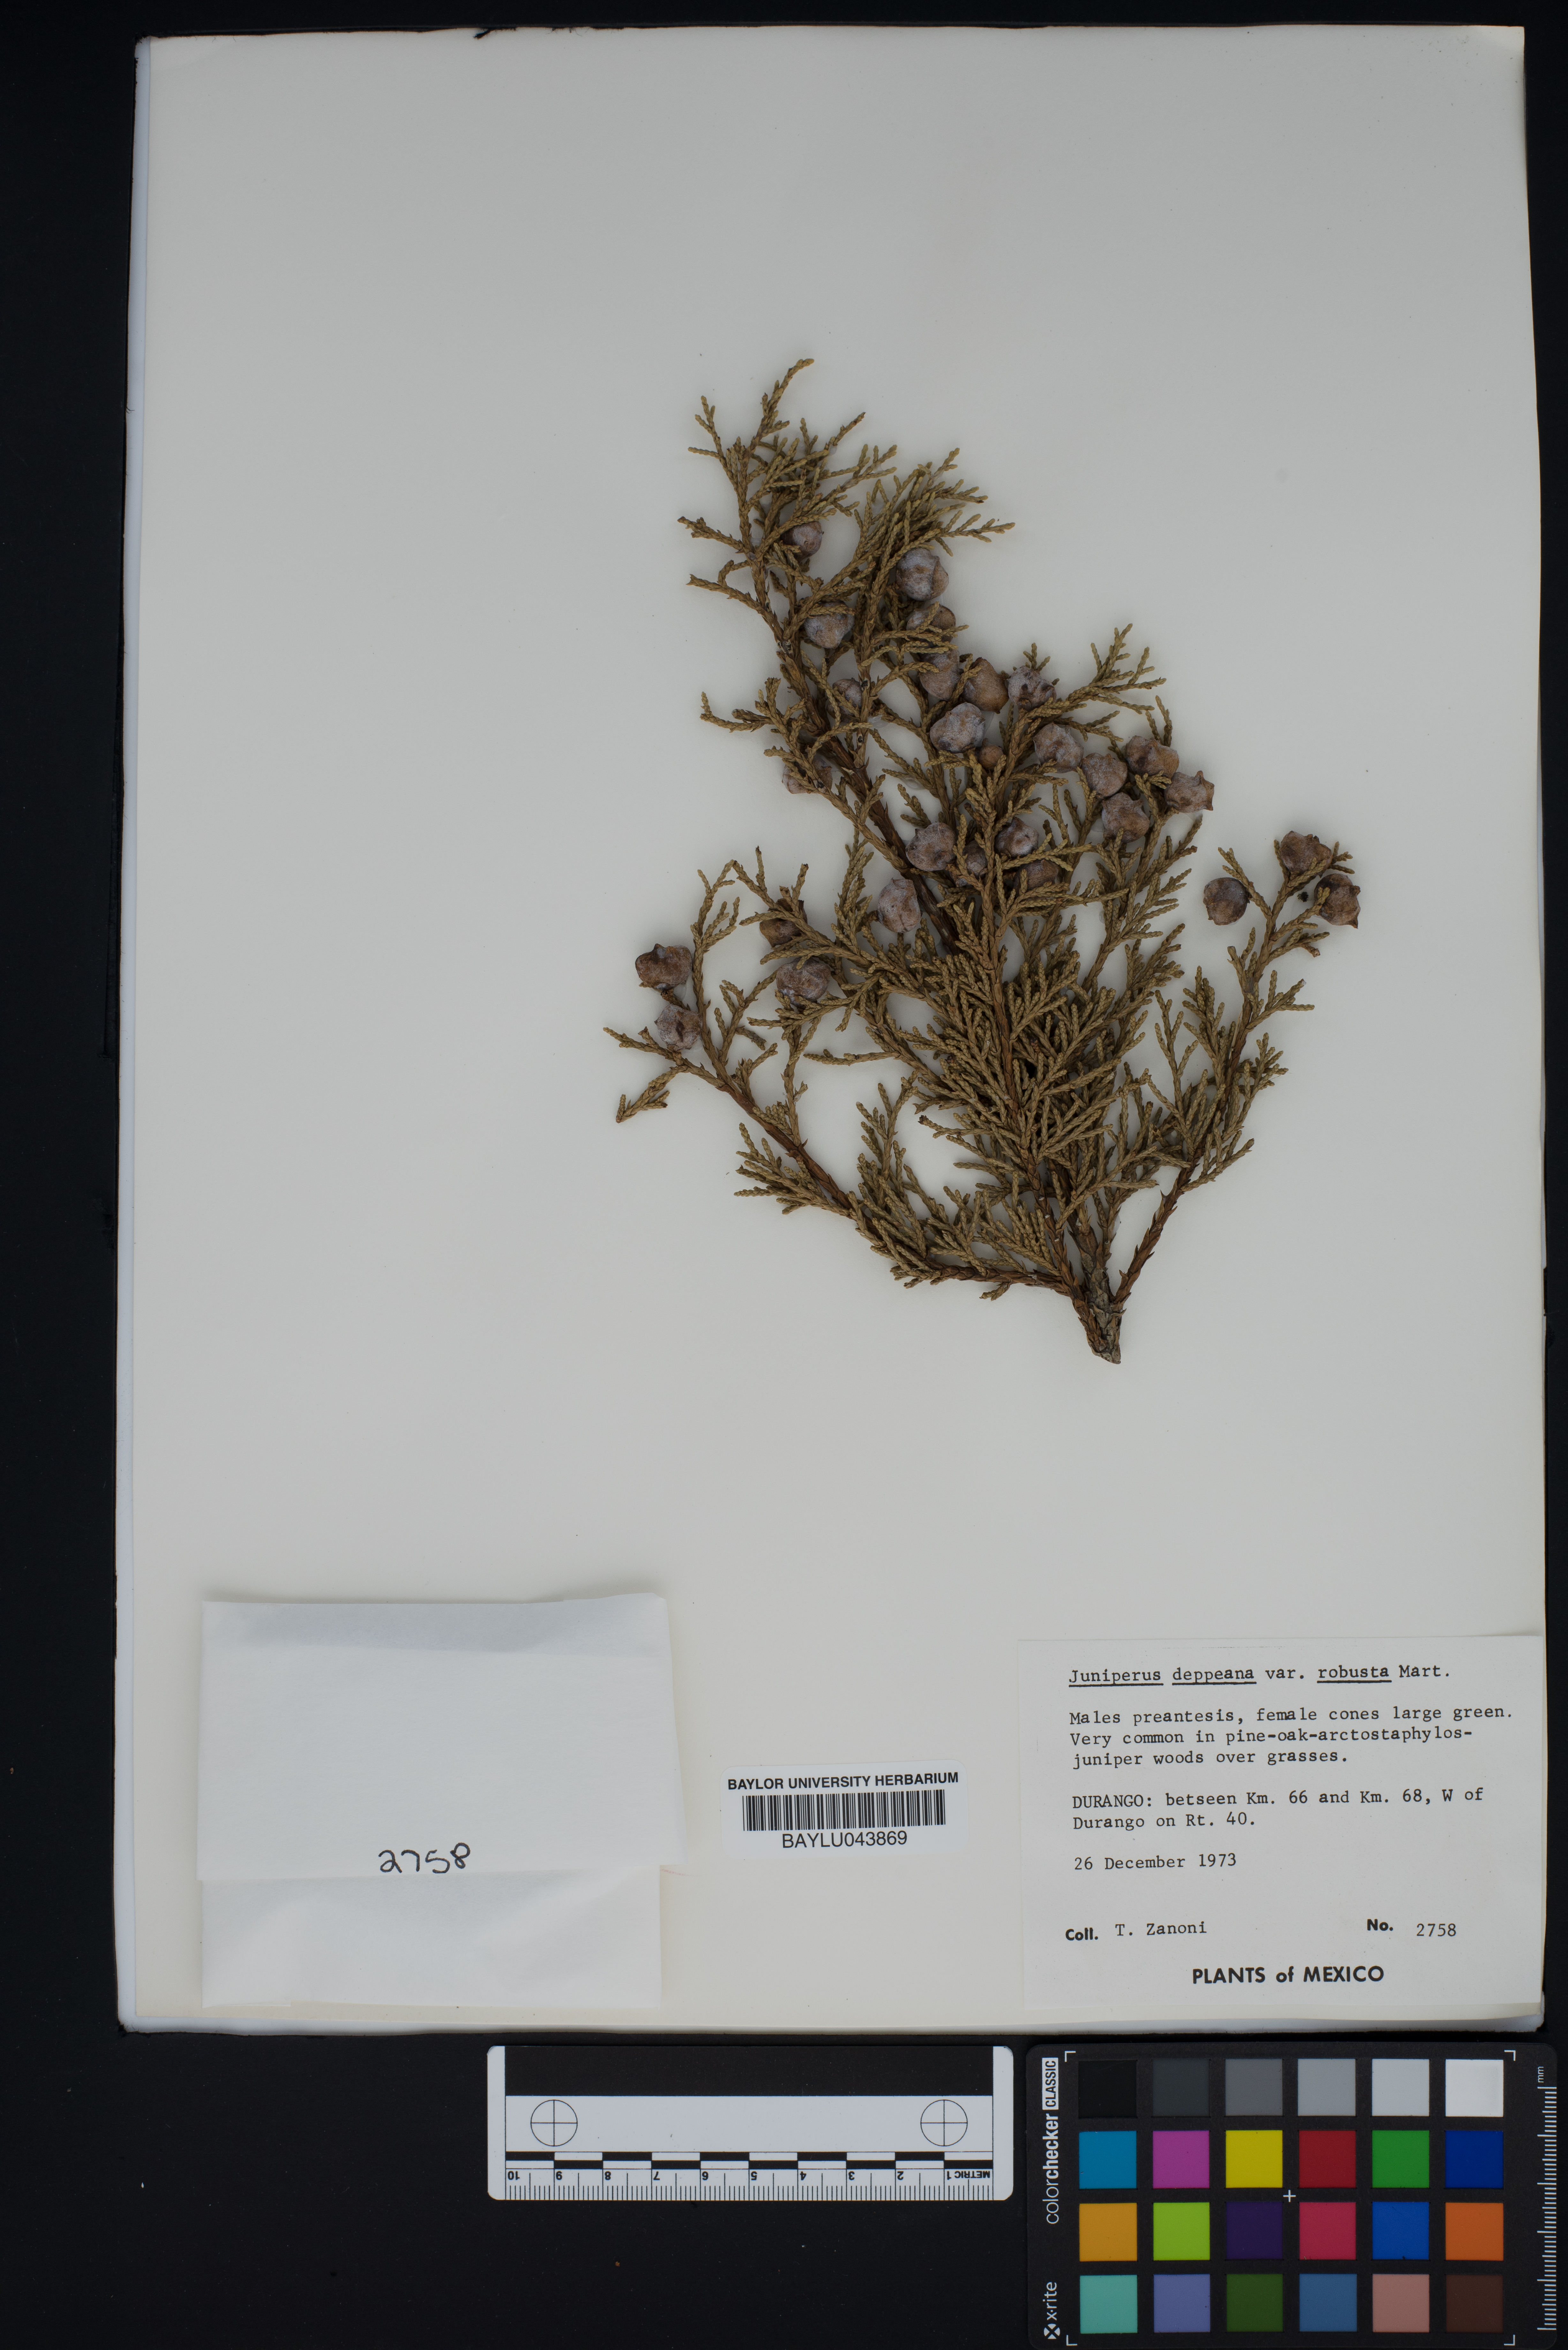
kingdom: Plantae
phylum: Tracheophyta
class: Pinopsida
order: Pinales
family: Cupressaceae
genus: Juniperus
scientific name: Juniperus deppeana
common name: Alligator juniper
